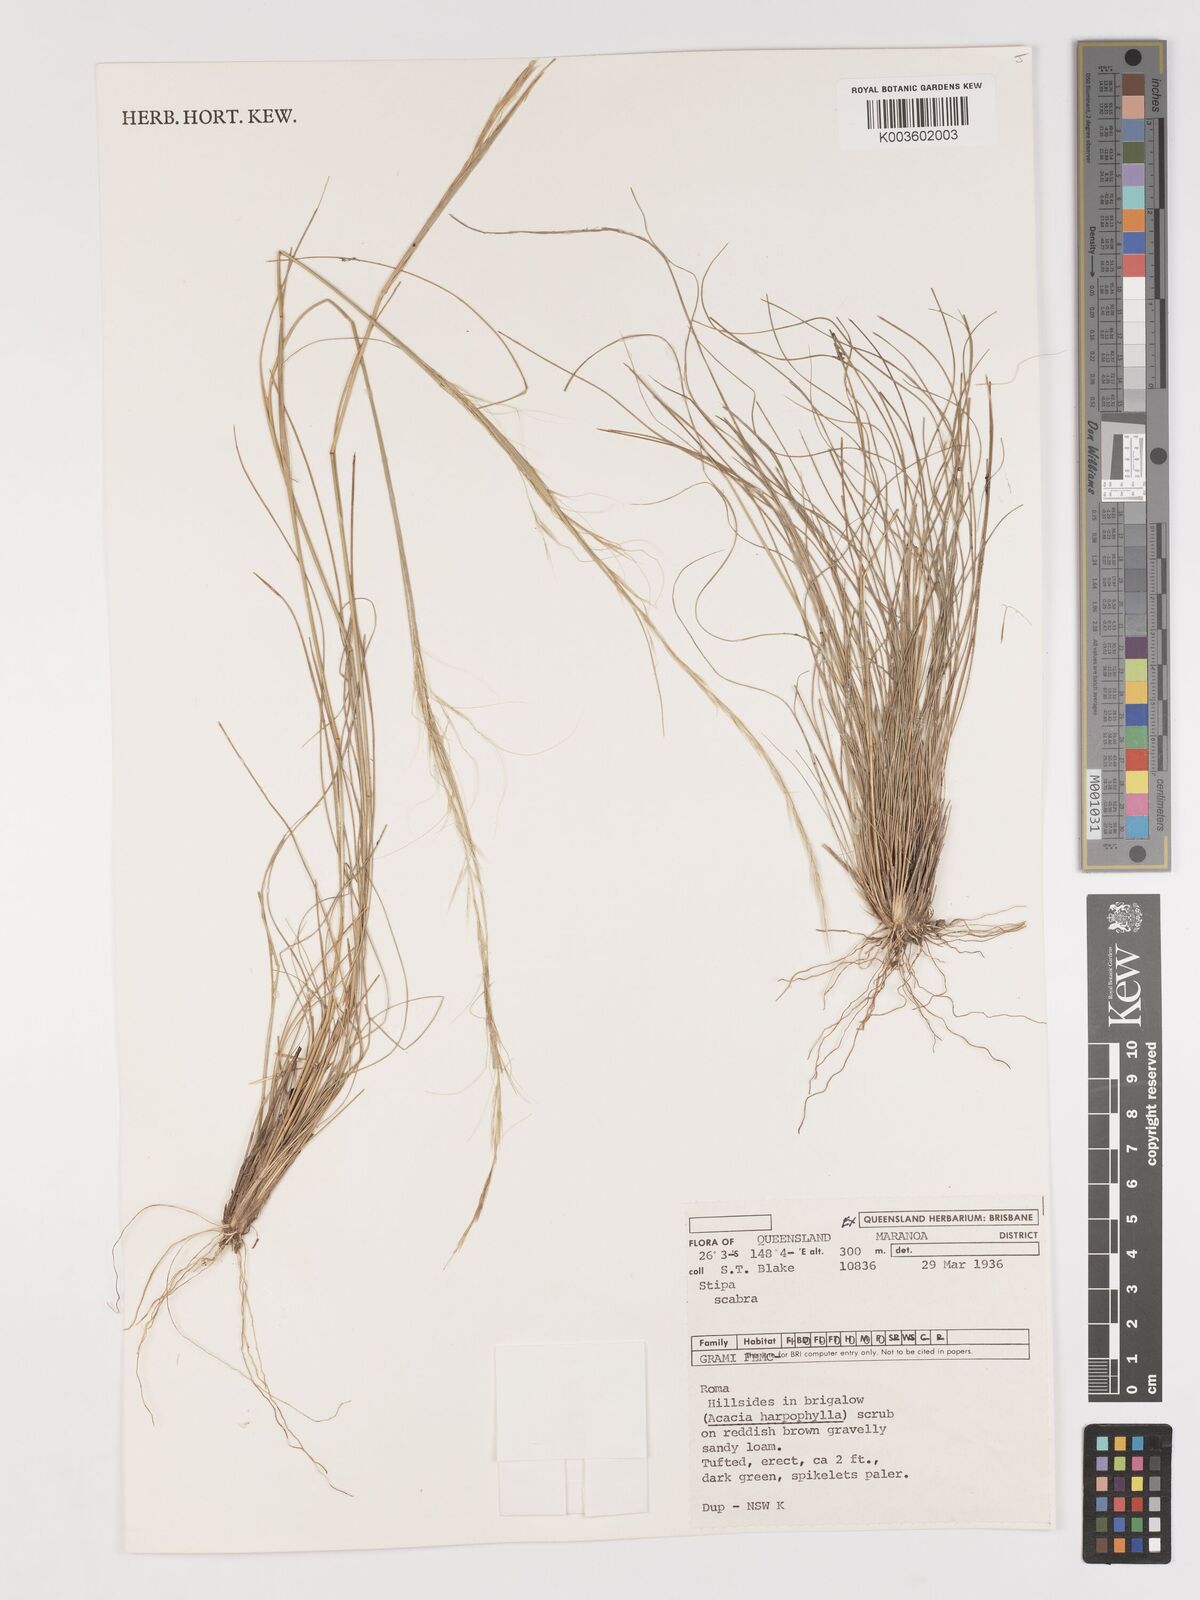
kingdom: Plantae
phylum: Tracheophyta
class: Liliopsida
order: Poales
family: Poaceae
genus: Austrostipa
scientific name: Austrostipa scabra
